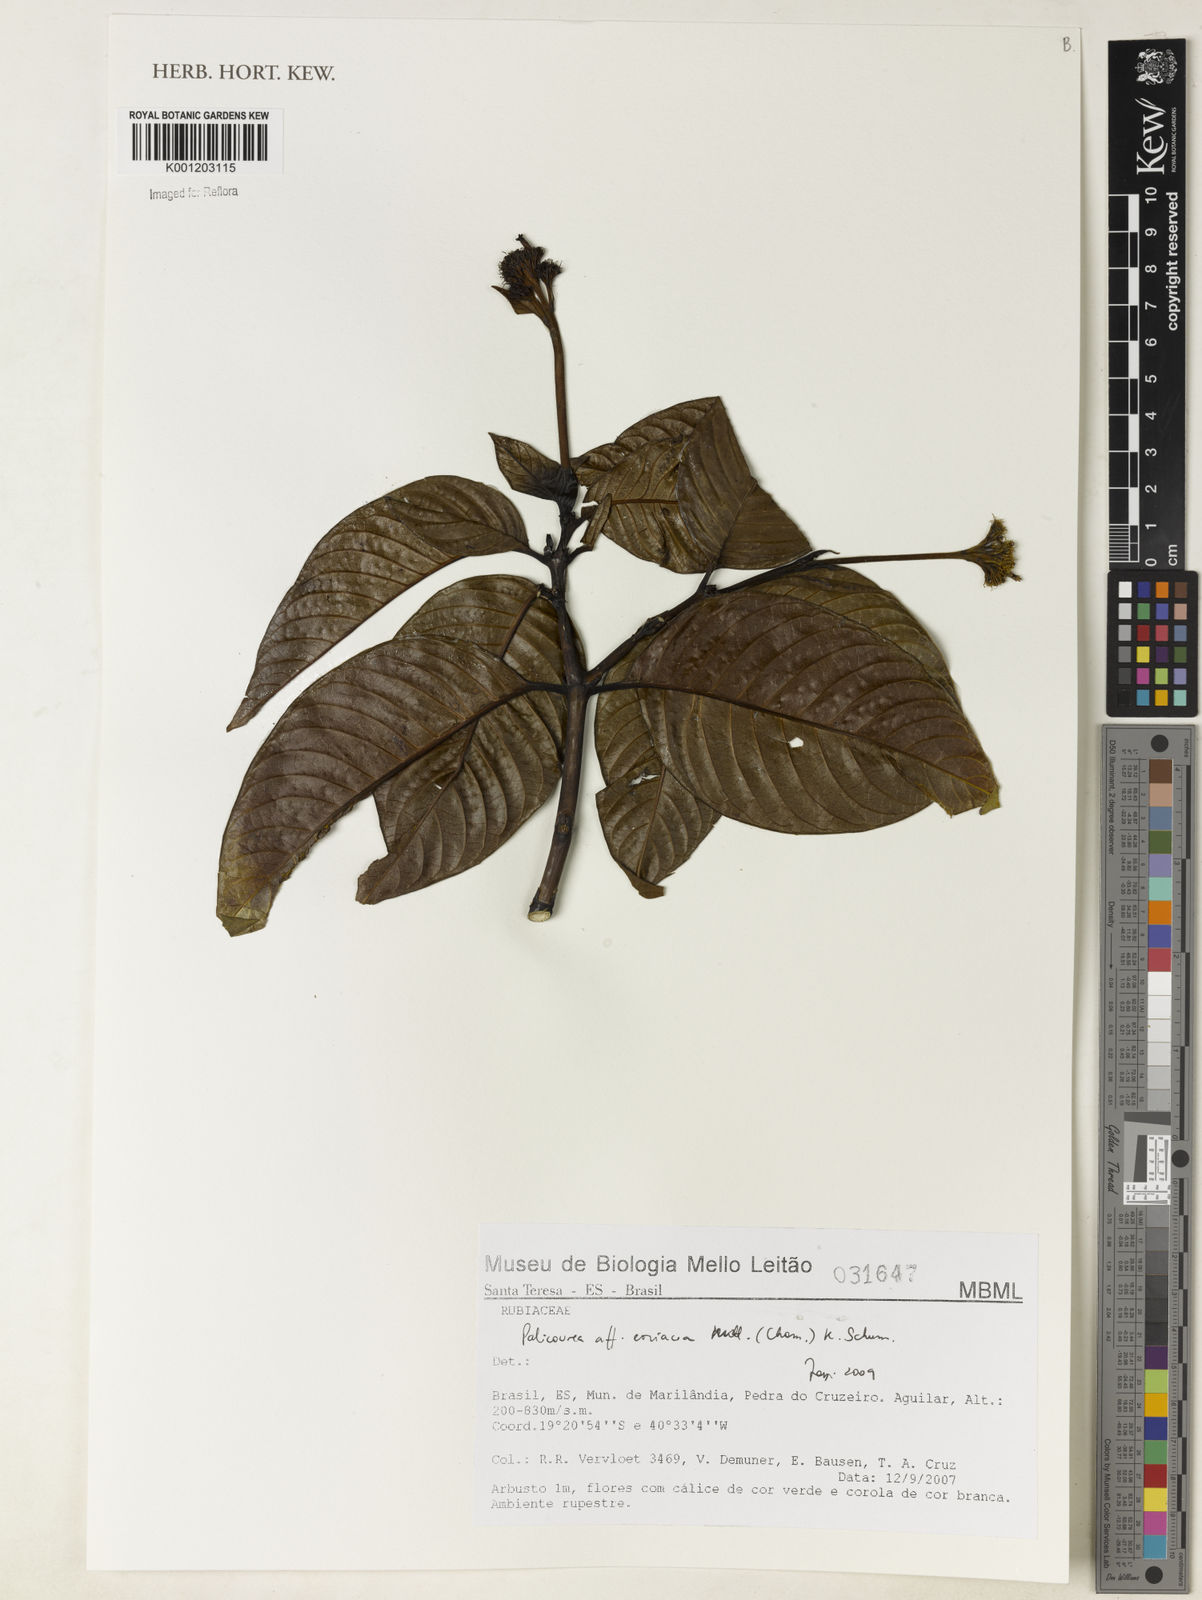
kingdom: Plantae
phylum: Tracheophyta
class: Magnoliopsida
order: Gentianales
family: Rubiaceae
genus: Palicourea
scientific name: Palicourea coriacea
